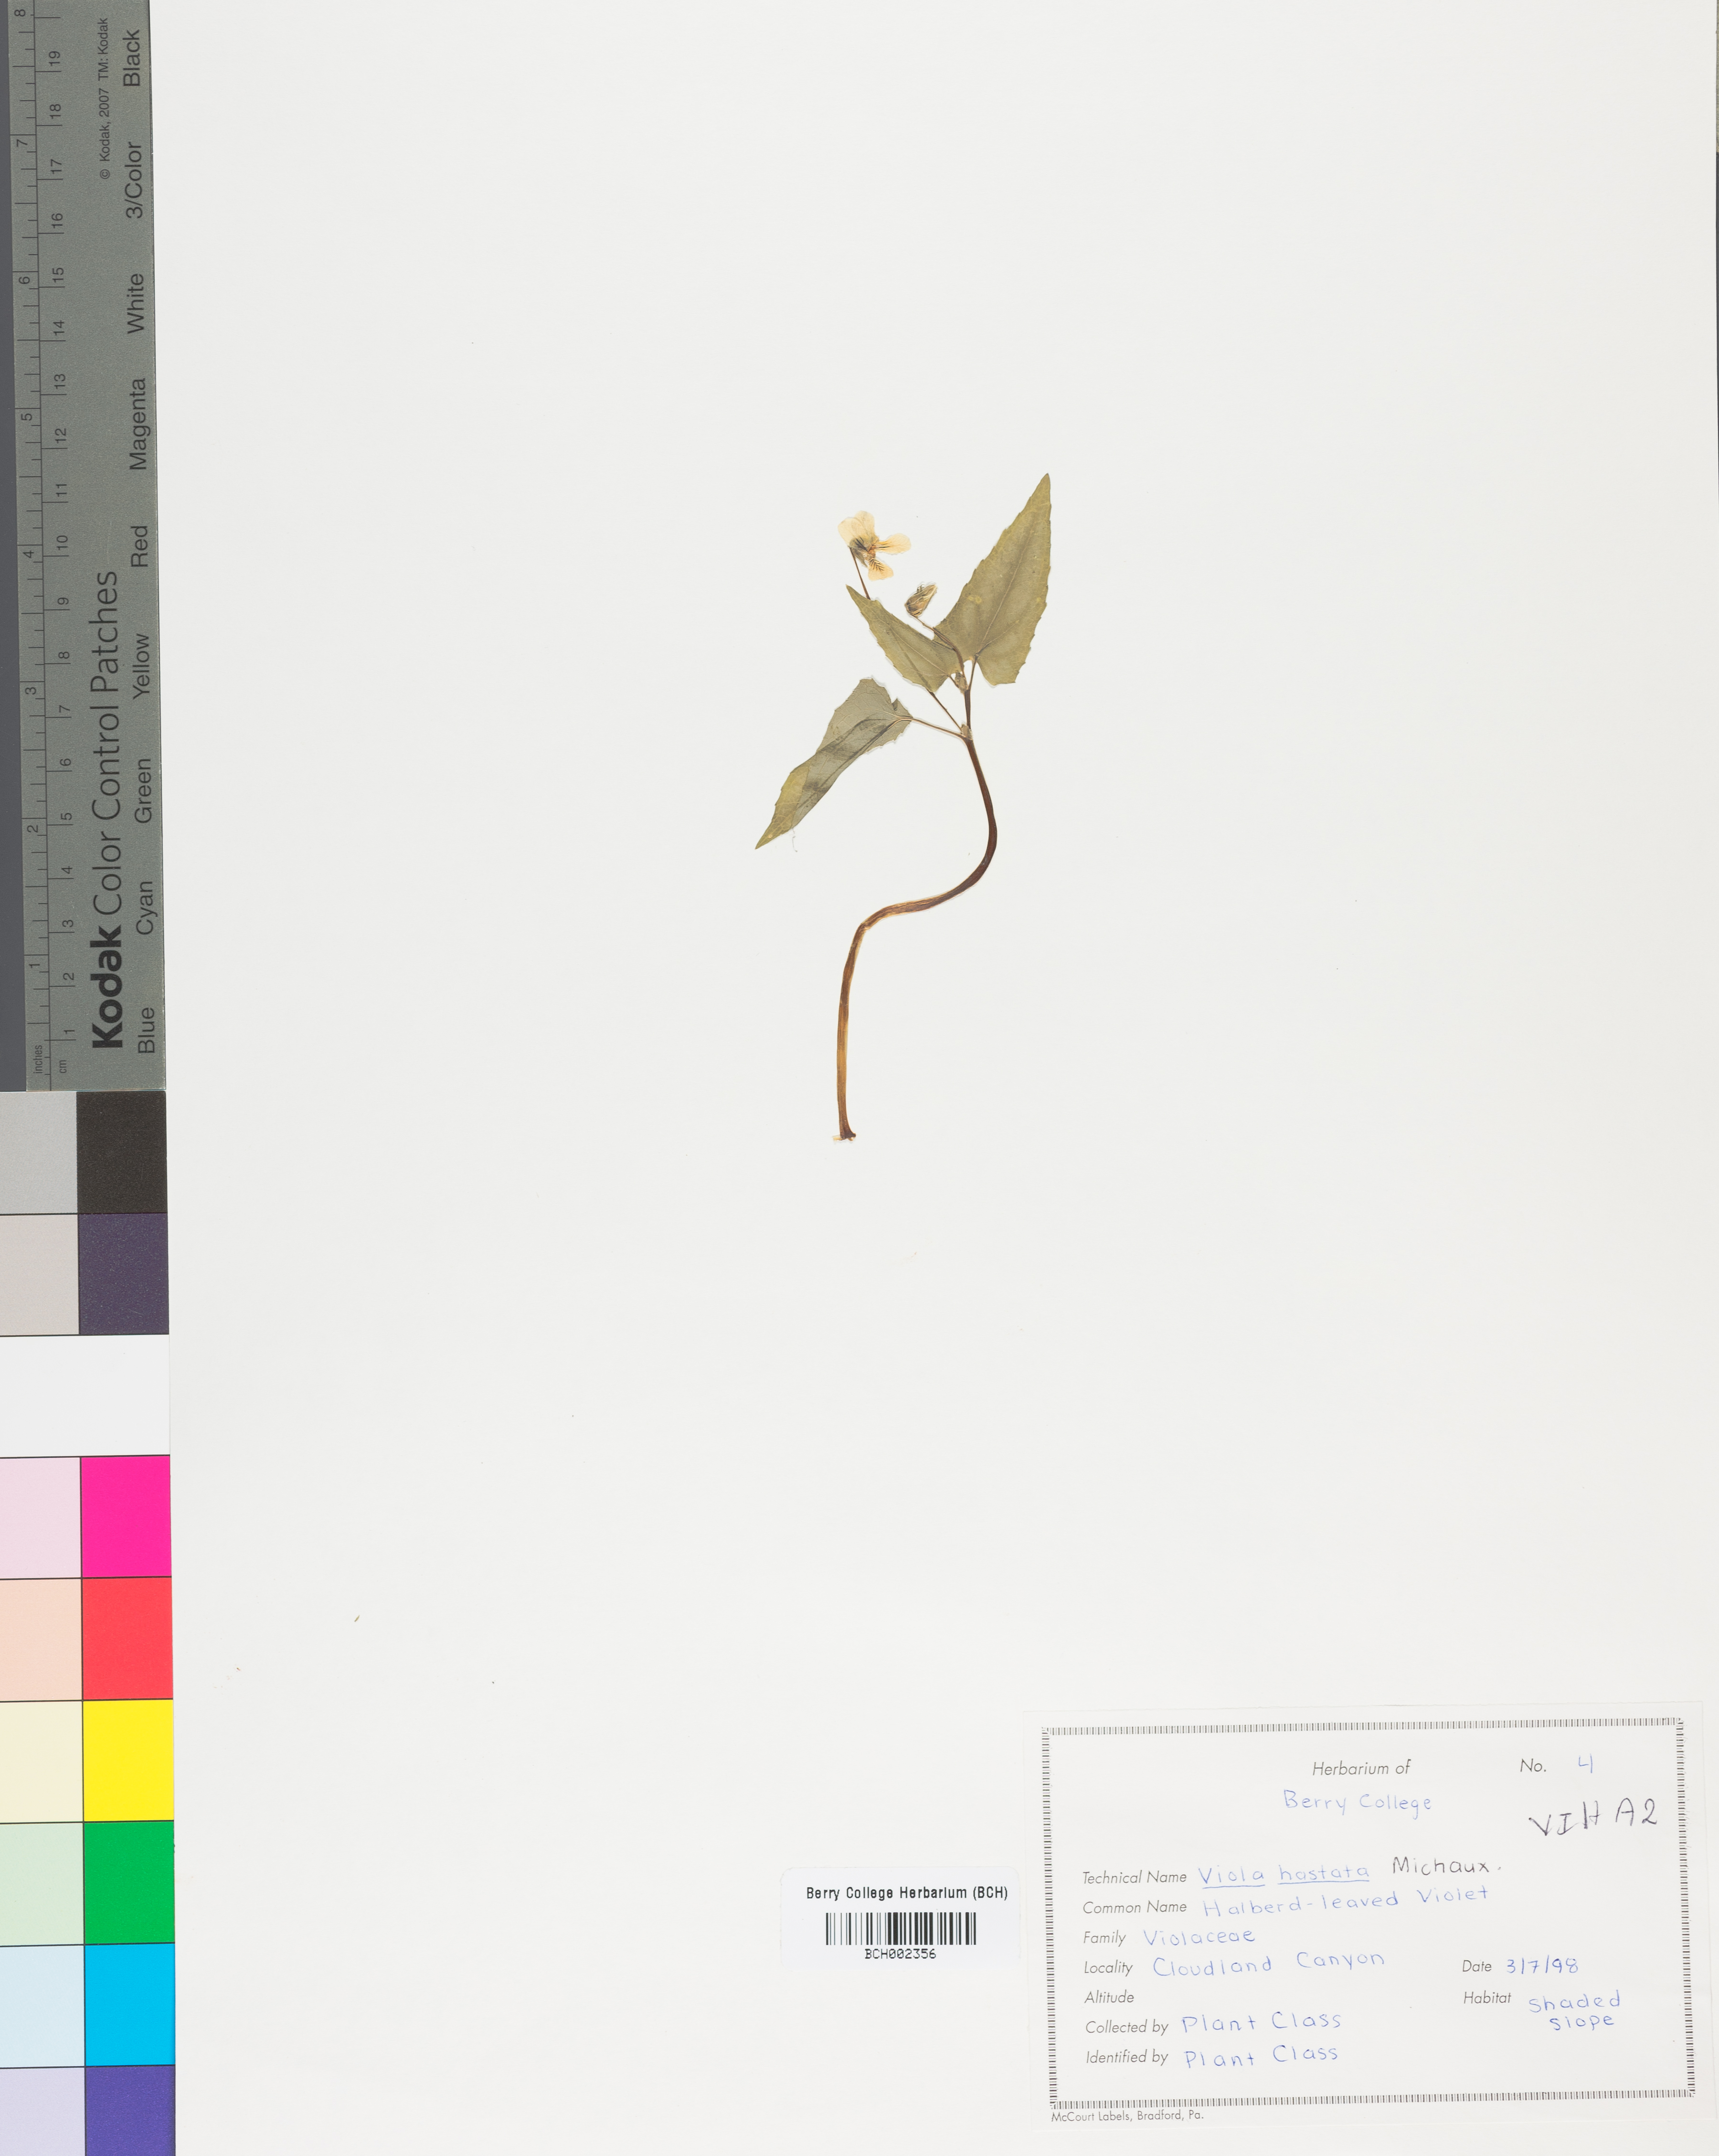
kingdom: Plantae
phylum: Tracheophyta
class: Magnoliopsida
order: Malpighiales
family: Violaceae
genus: Viola
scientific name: Viola hastata
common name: Spear-leaf violet
